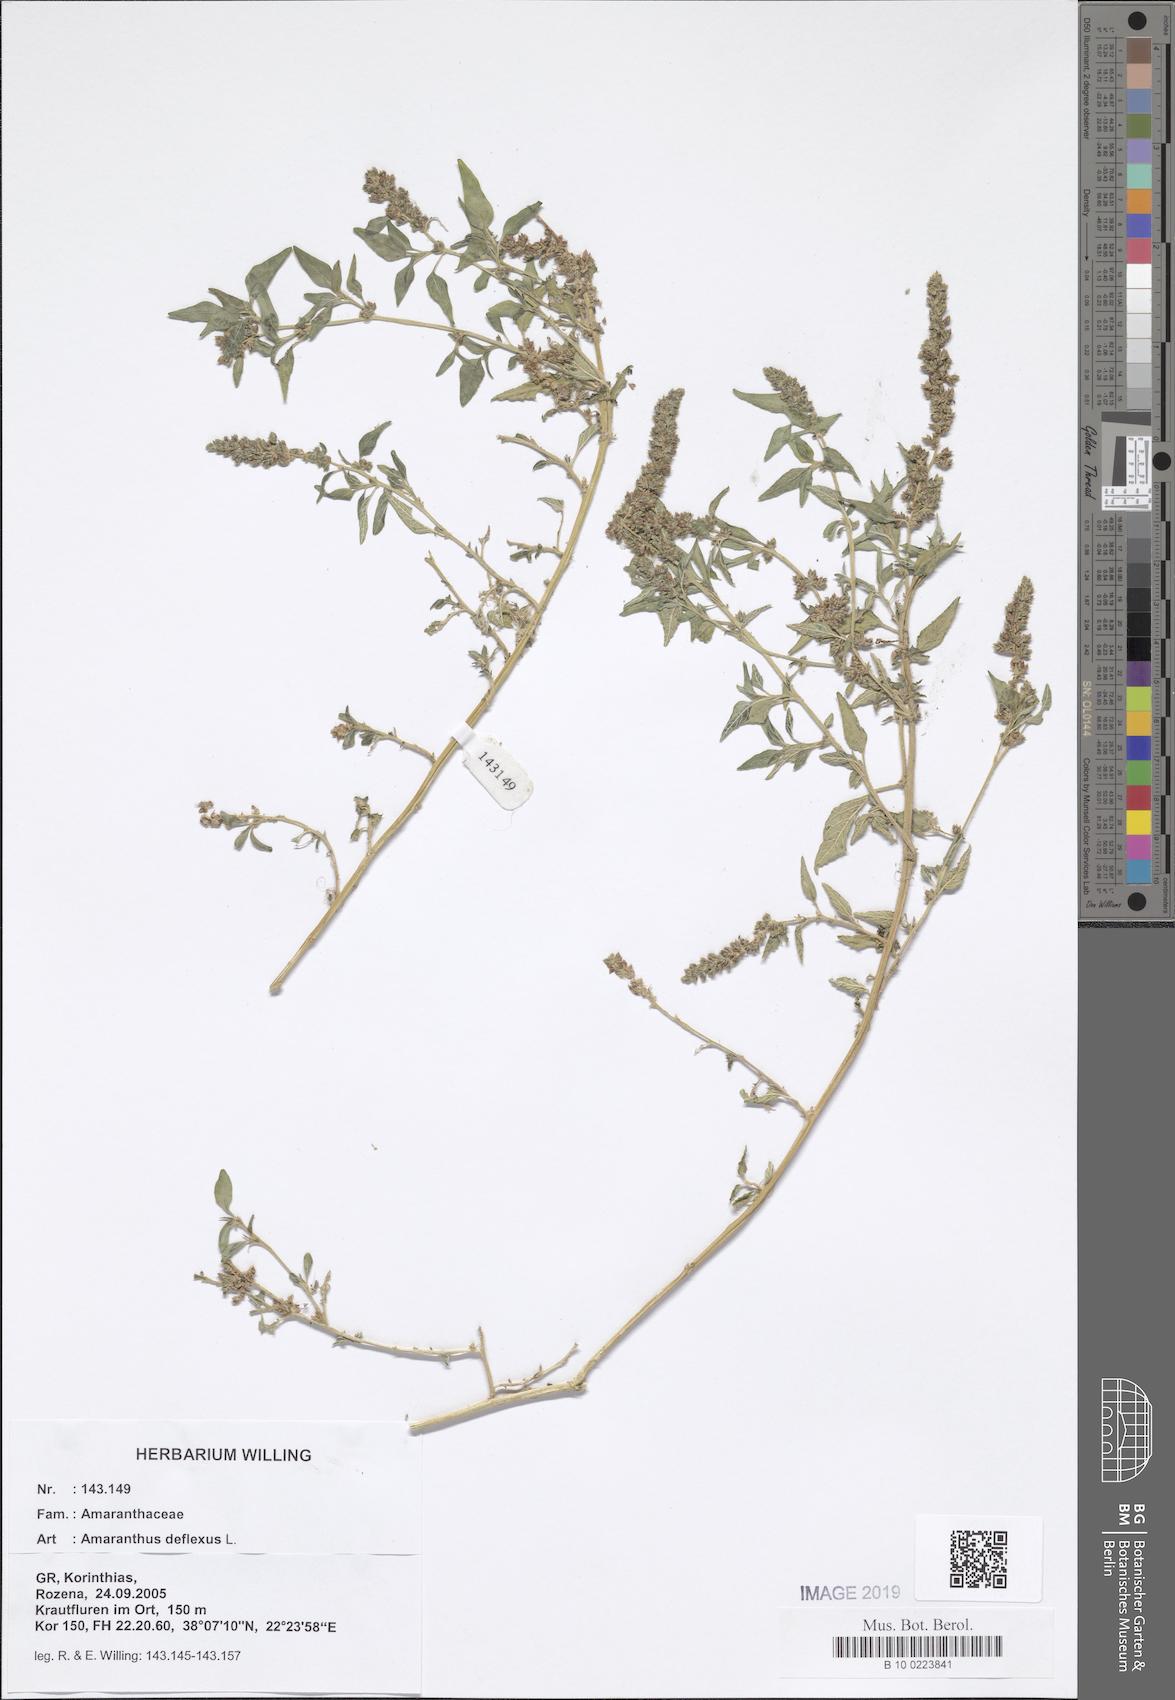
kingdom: Plantae
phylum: Tracheophyta
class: Magnoliopsida
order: Caryophyllales
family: Amaranthaceae
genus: Amaranthus
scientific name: Amaranthus deflexus
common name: Perennial pigweed
